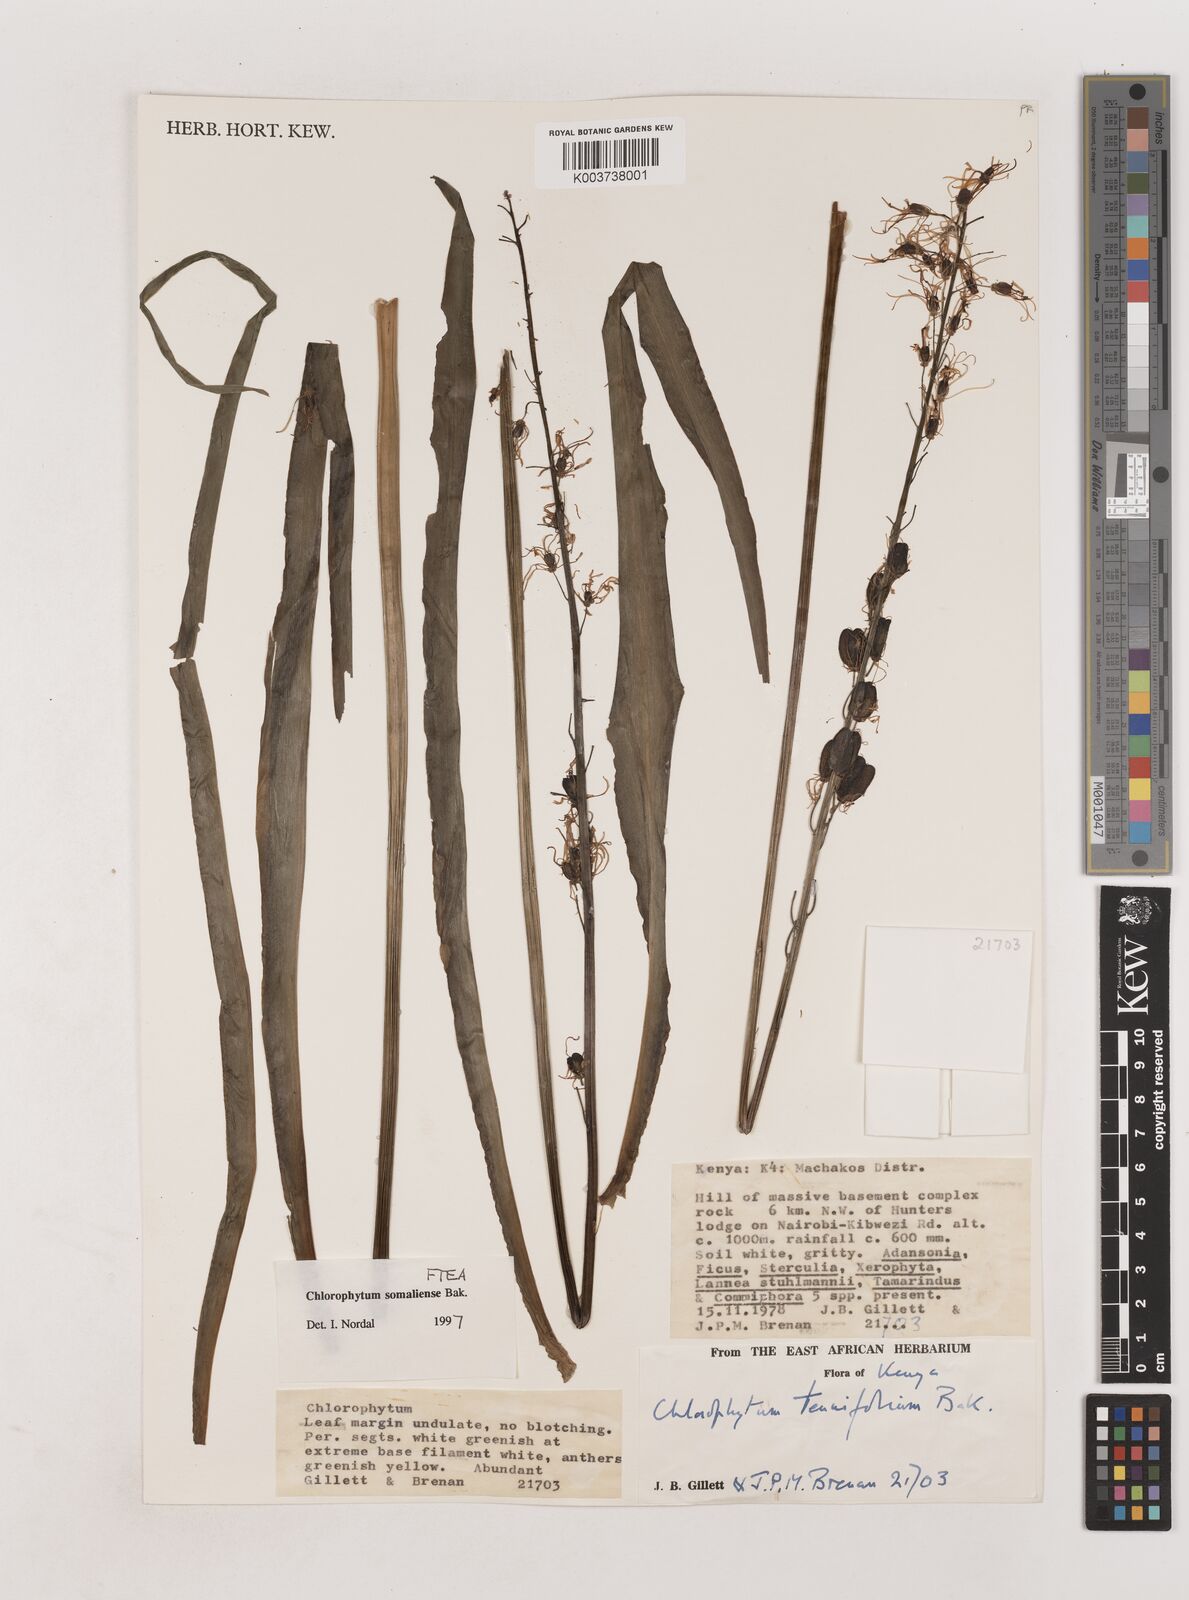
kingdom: Plantae
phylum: Tracheophyta
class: Liliopsida
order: Asparagales
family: Asparagaceae
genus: Chlorophytum
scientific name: Chlorophytum somaliense
